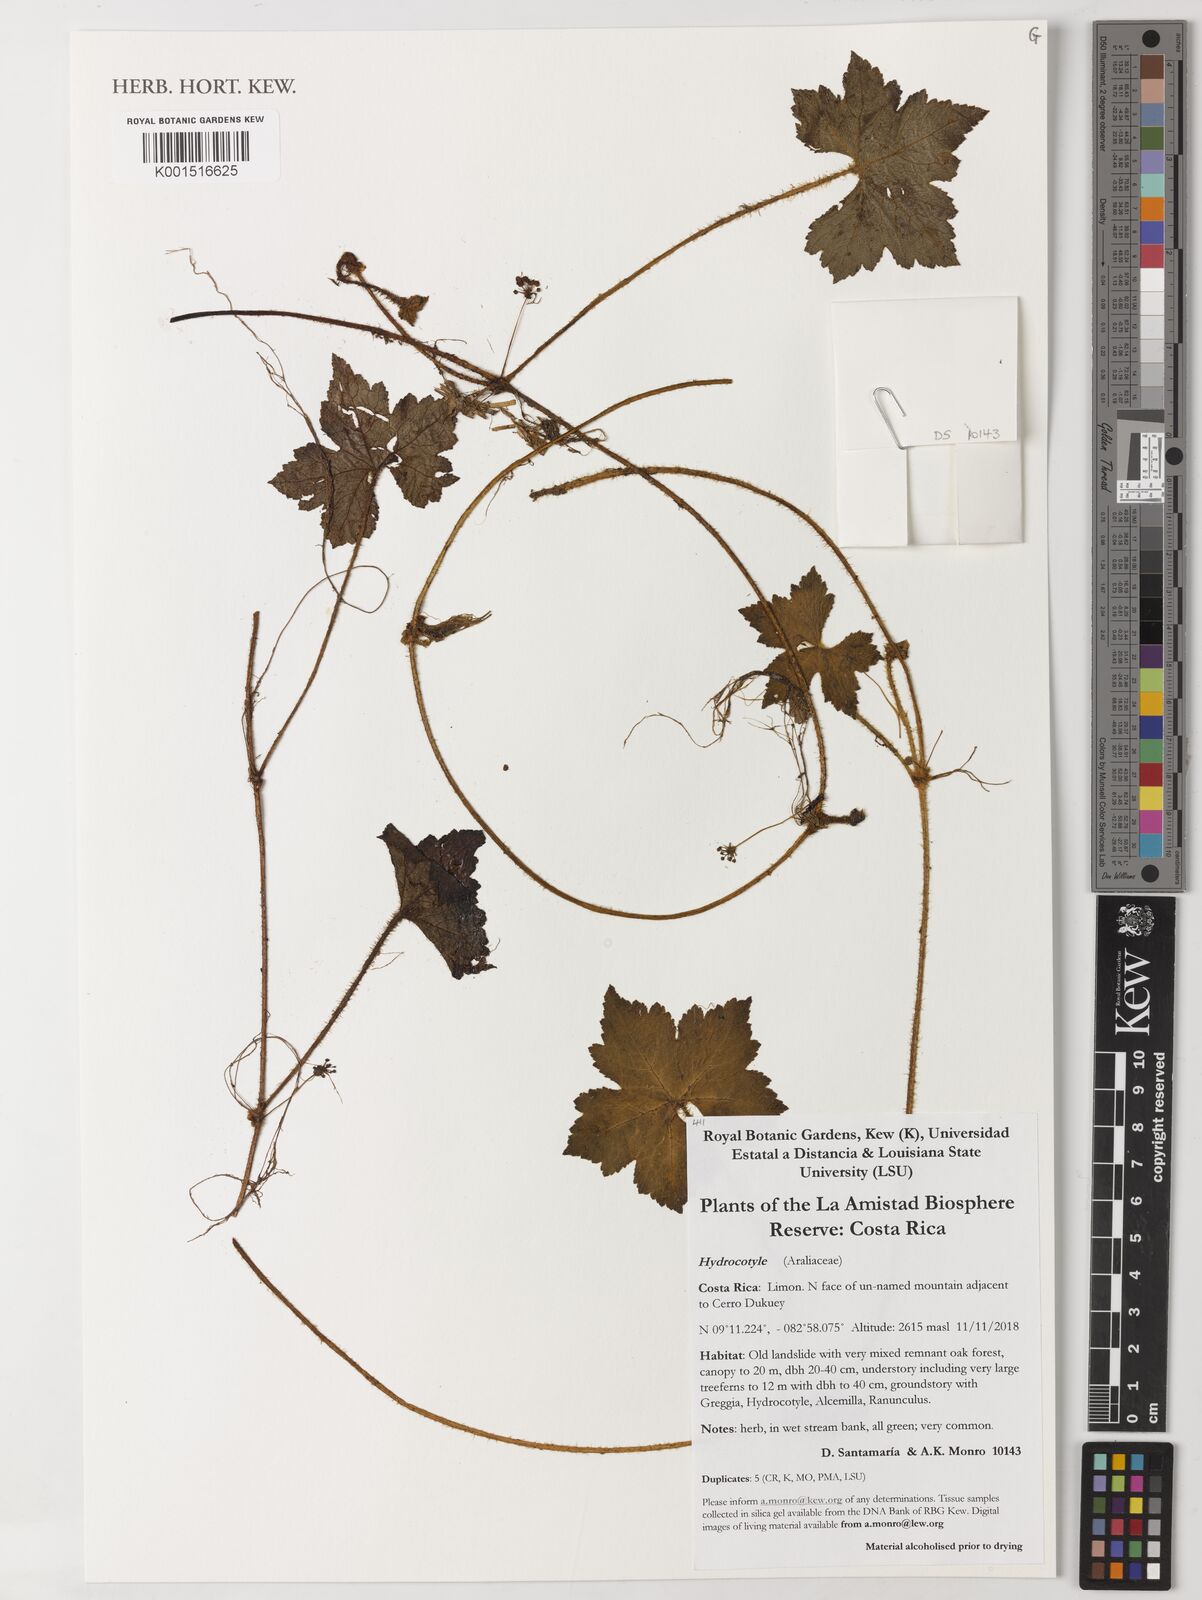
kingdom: Plantae
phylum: Tracheophyta
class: Magnoliopsida
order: Apiales
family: Araliaceae
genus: Hydrocotyle
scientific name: Hydrocotyle
